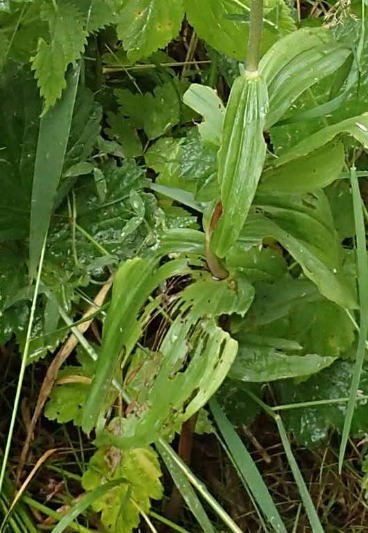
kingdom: Plantae
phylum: Tracheophyta
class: Liliopsida
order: Asparagales
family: Orchidaceae
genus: Epipactis
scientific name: Epipactis helleborine
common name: Skov-hullæbe
